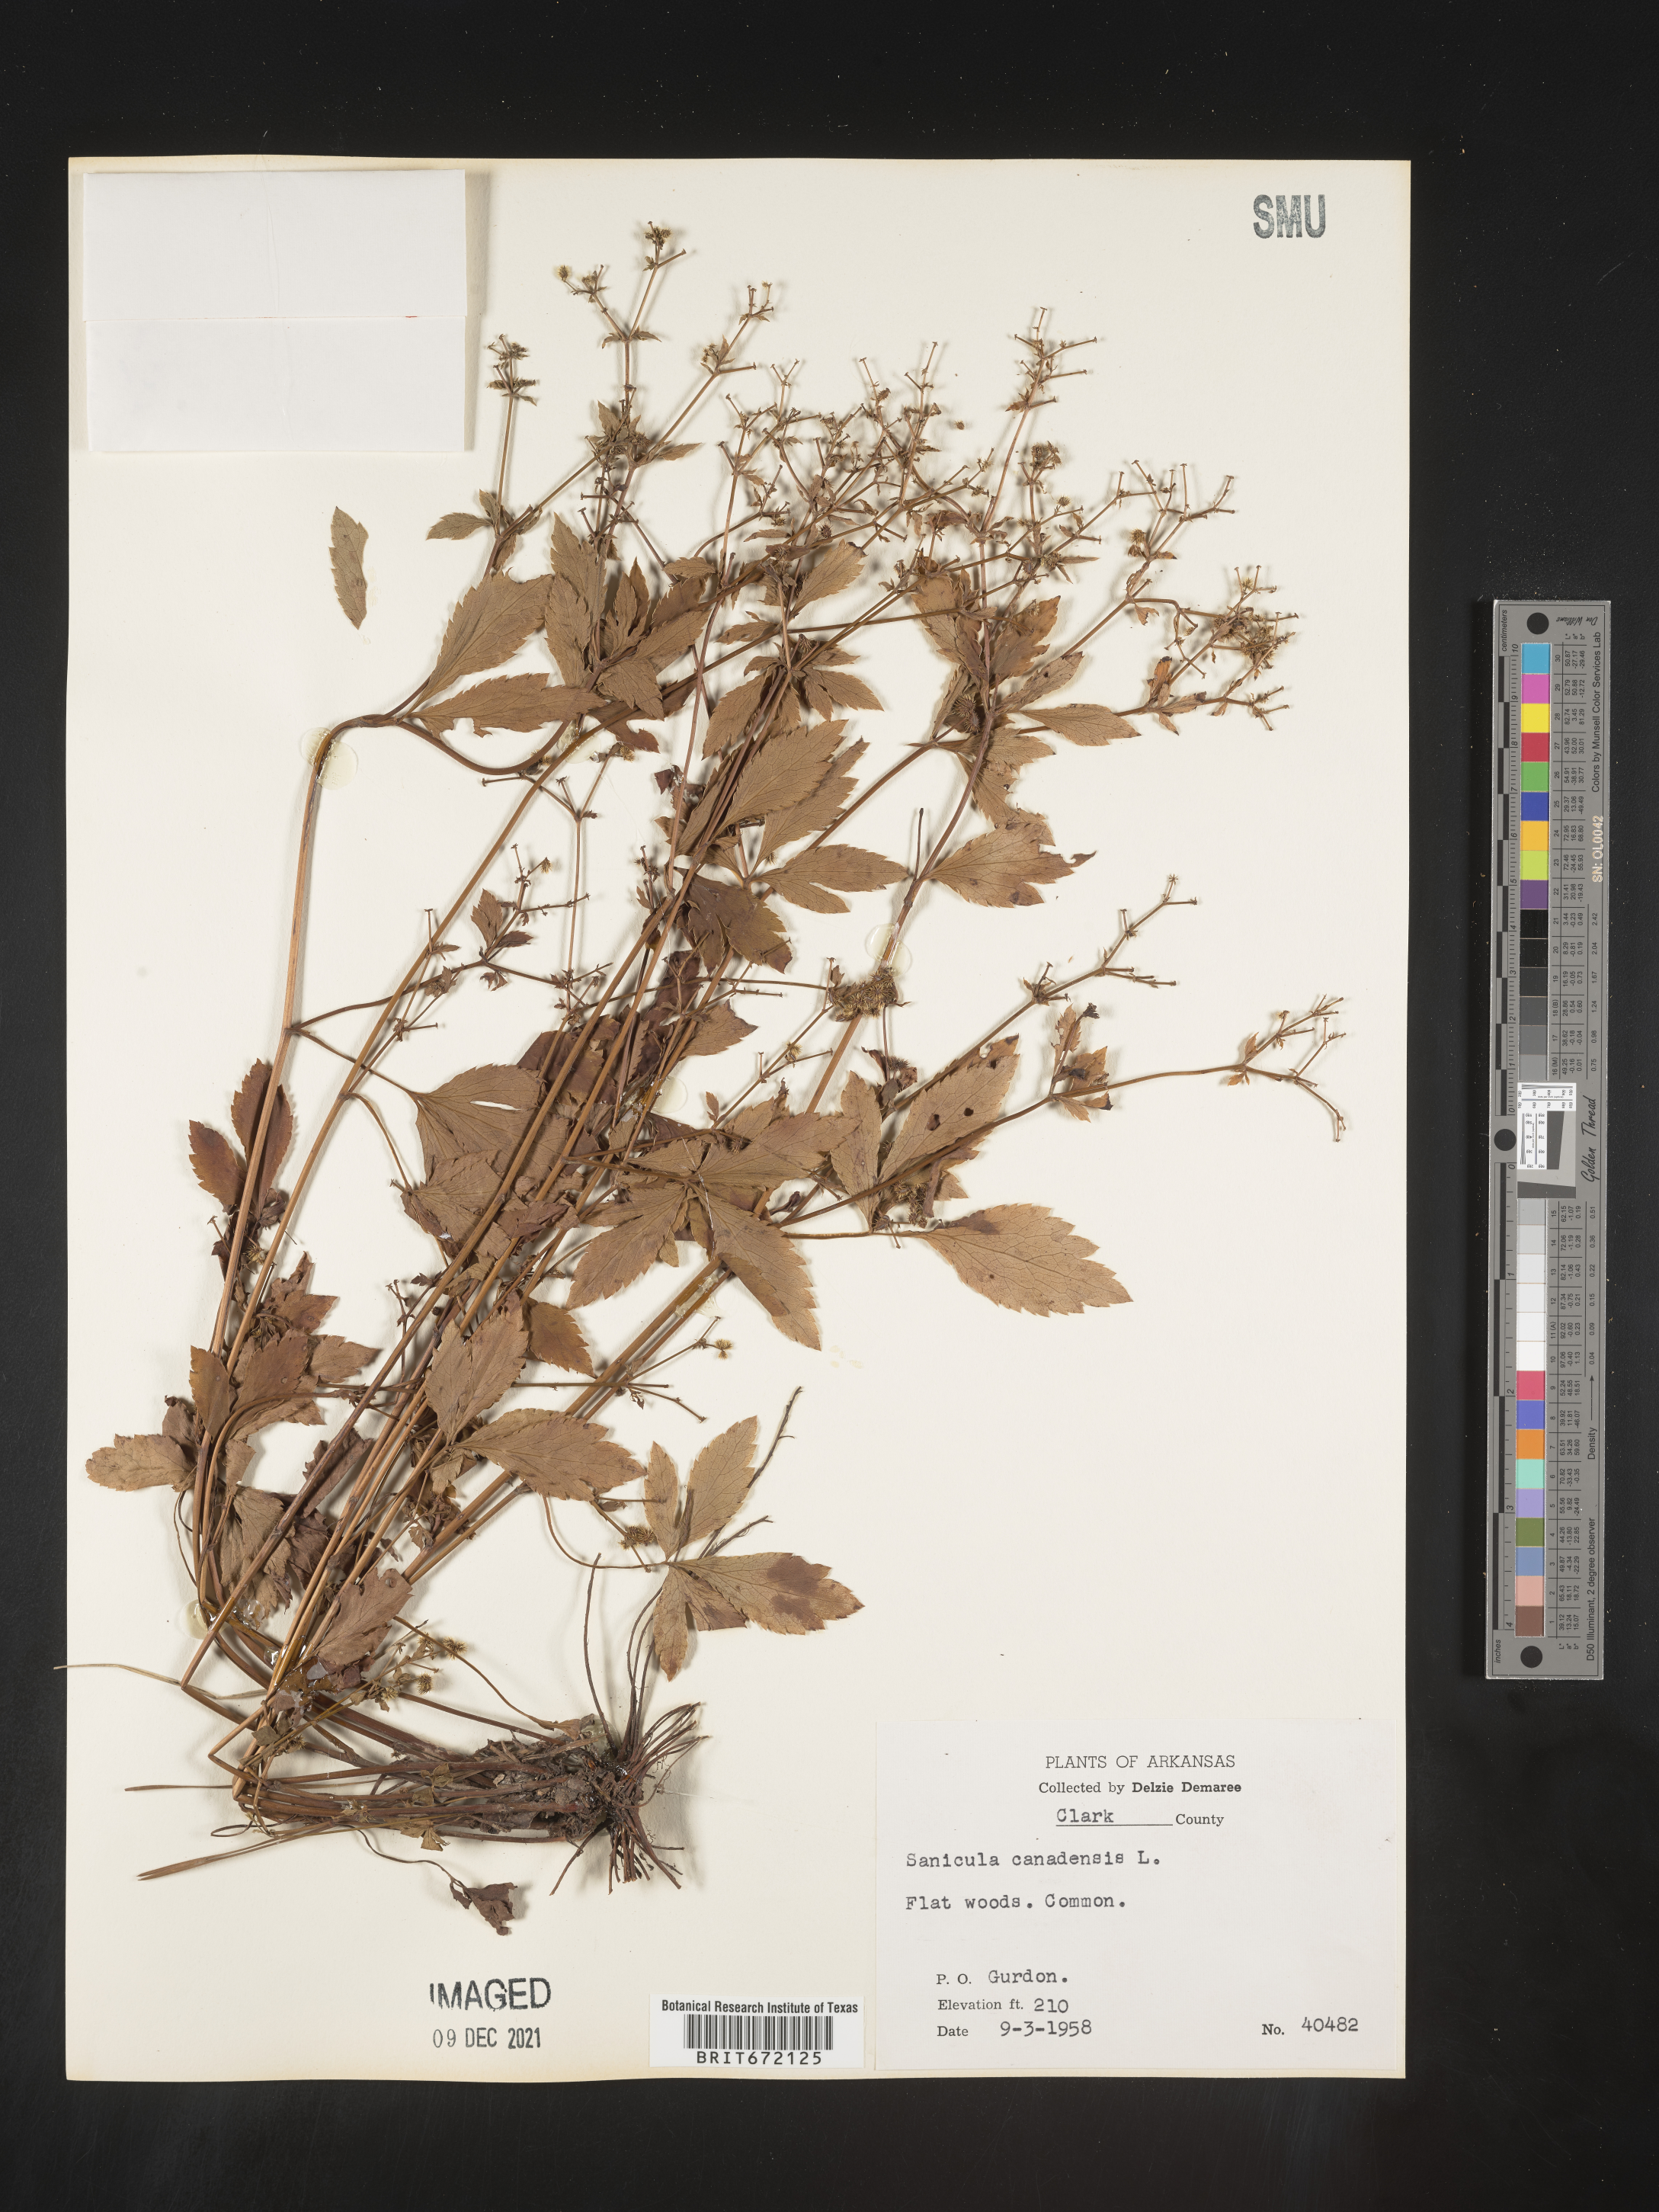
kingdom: Plantae
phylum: Tracheophyta
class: Magnoliopsida
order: Apiales
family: Apiaceae
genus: Sanicula
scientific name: Sanicula canadensis
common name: Canada sanicle
